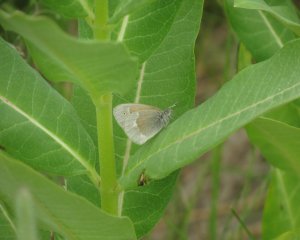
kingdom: Animalia
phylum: Arthropoda
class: Insecta
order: Lepidoptera
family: Nymphalidae
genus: Coenonympha
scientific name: Coenonympha tullia
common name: Large Heath
